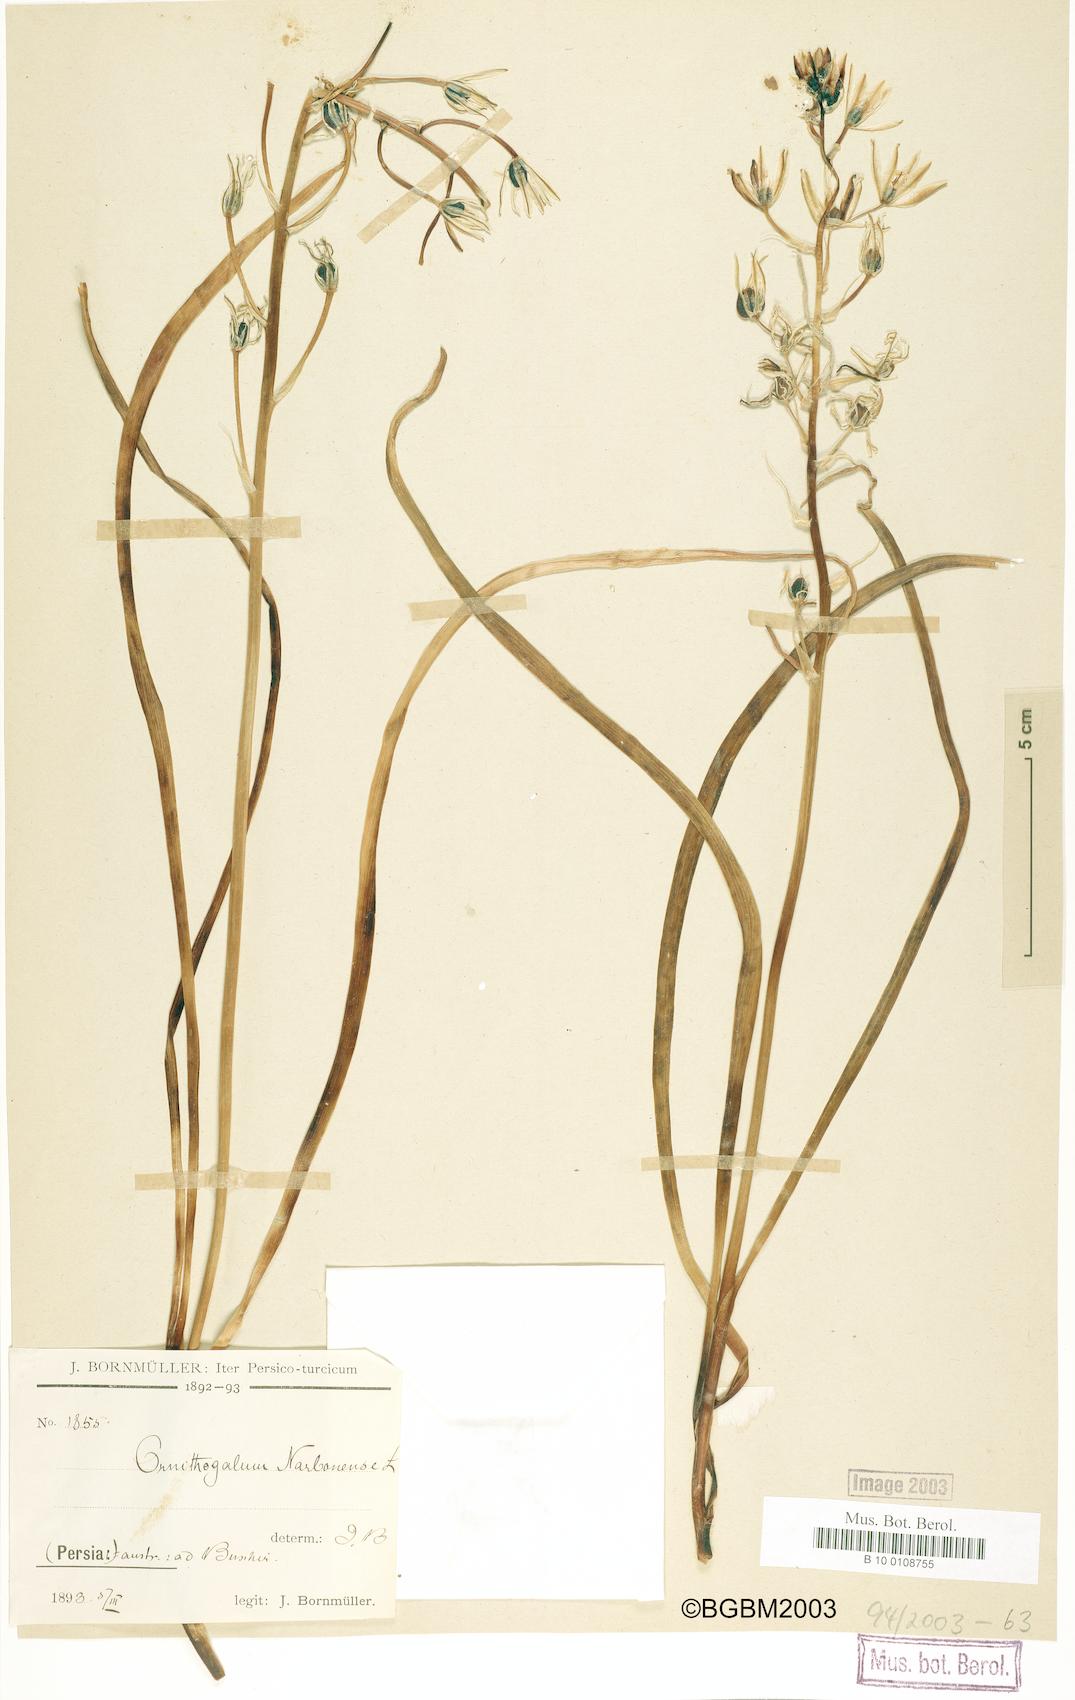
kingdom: Plantae
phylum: Tracheophyta
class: Liliopsida
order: Asparagales
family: Asparagaceae
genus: Ornithogalum
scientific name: Ornithogalum narbonense
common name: Bath-asparagus
